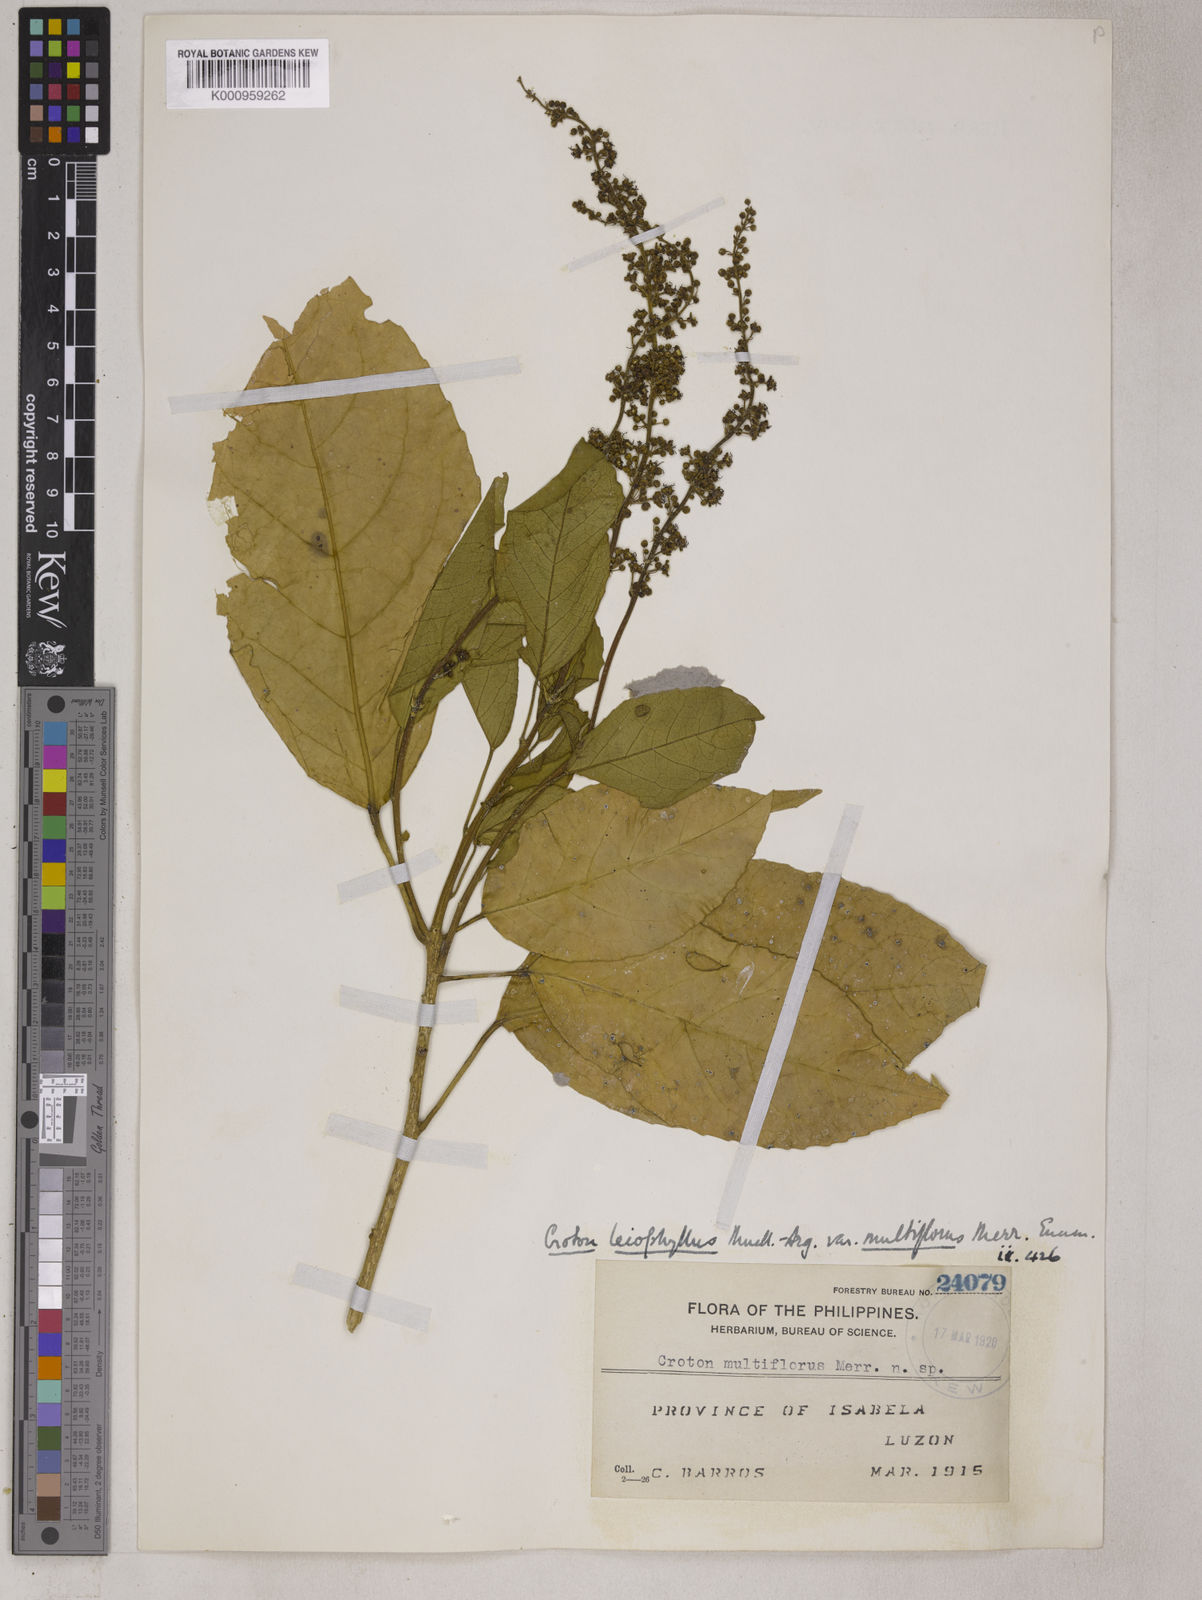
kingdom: Plantae
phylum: Tracheophyta
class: Magnoliopsida
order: Malpighiales
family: Euphorbiaceae
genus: Croton
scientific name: Croton
